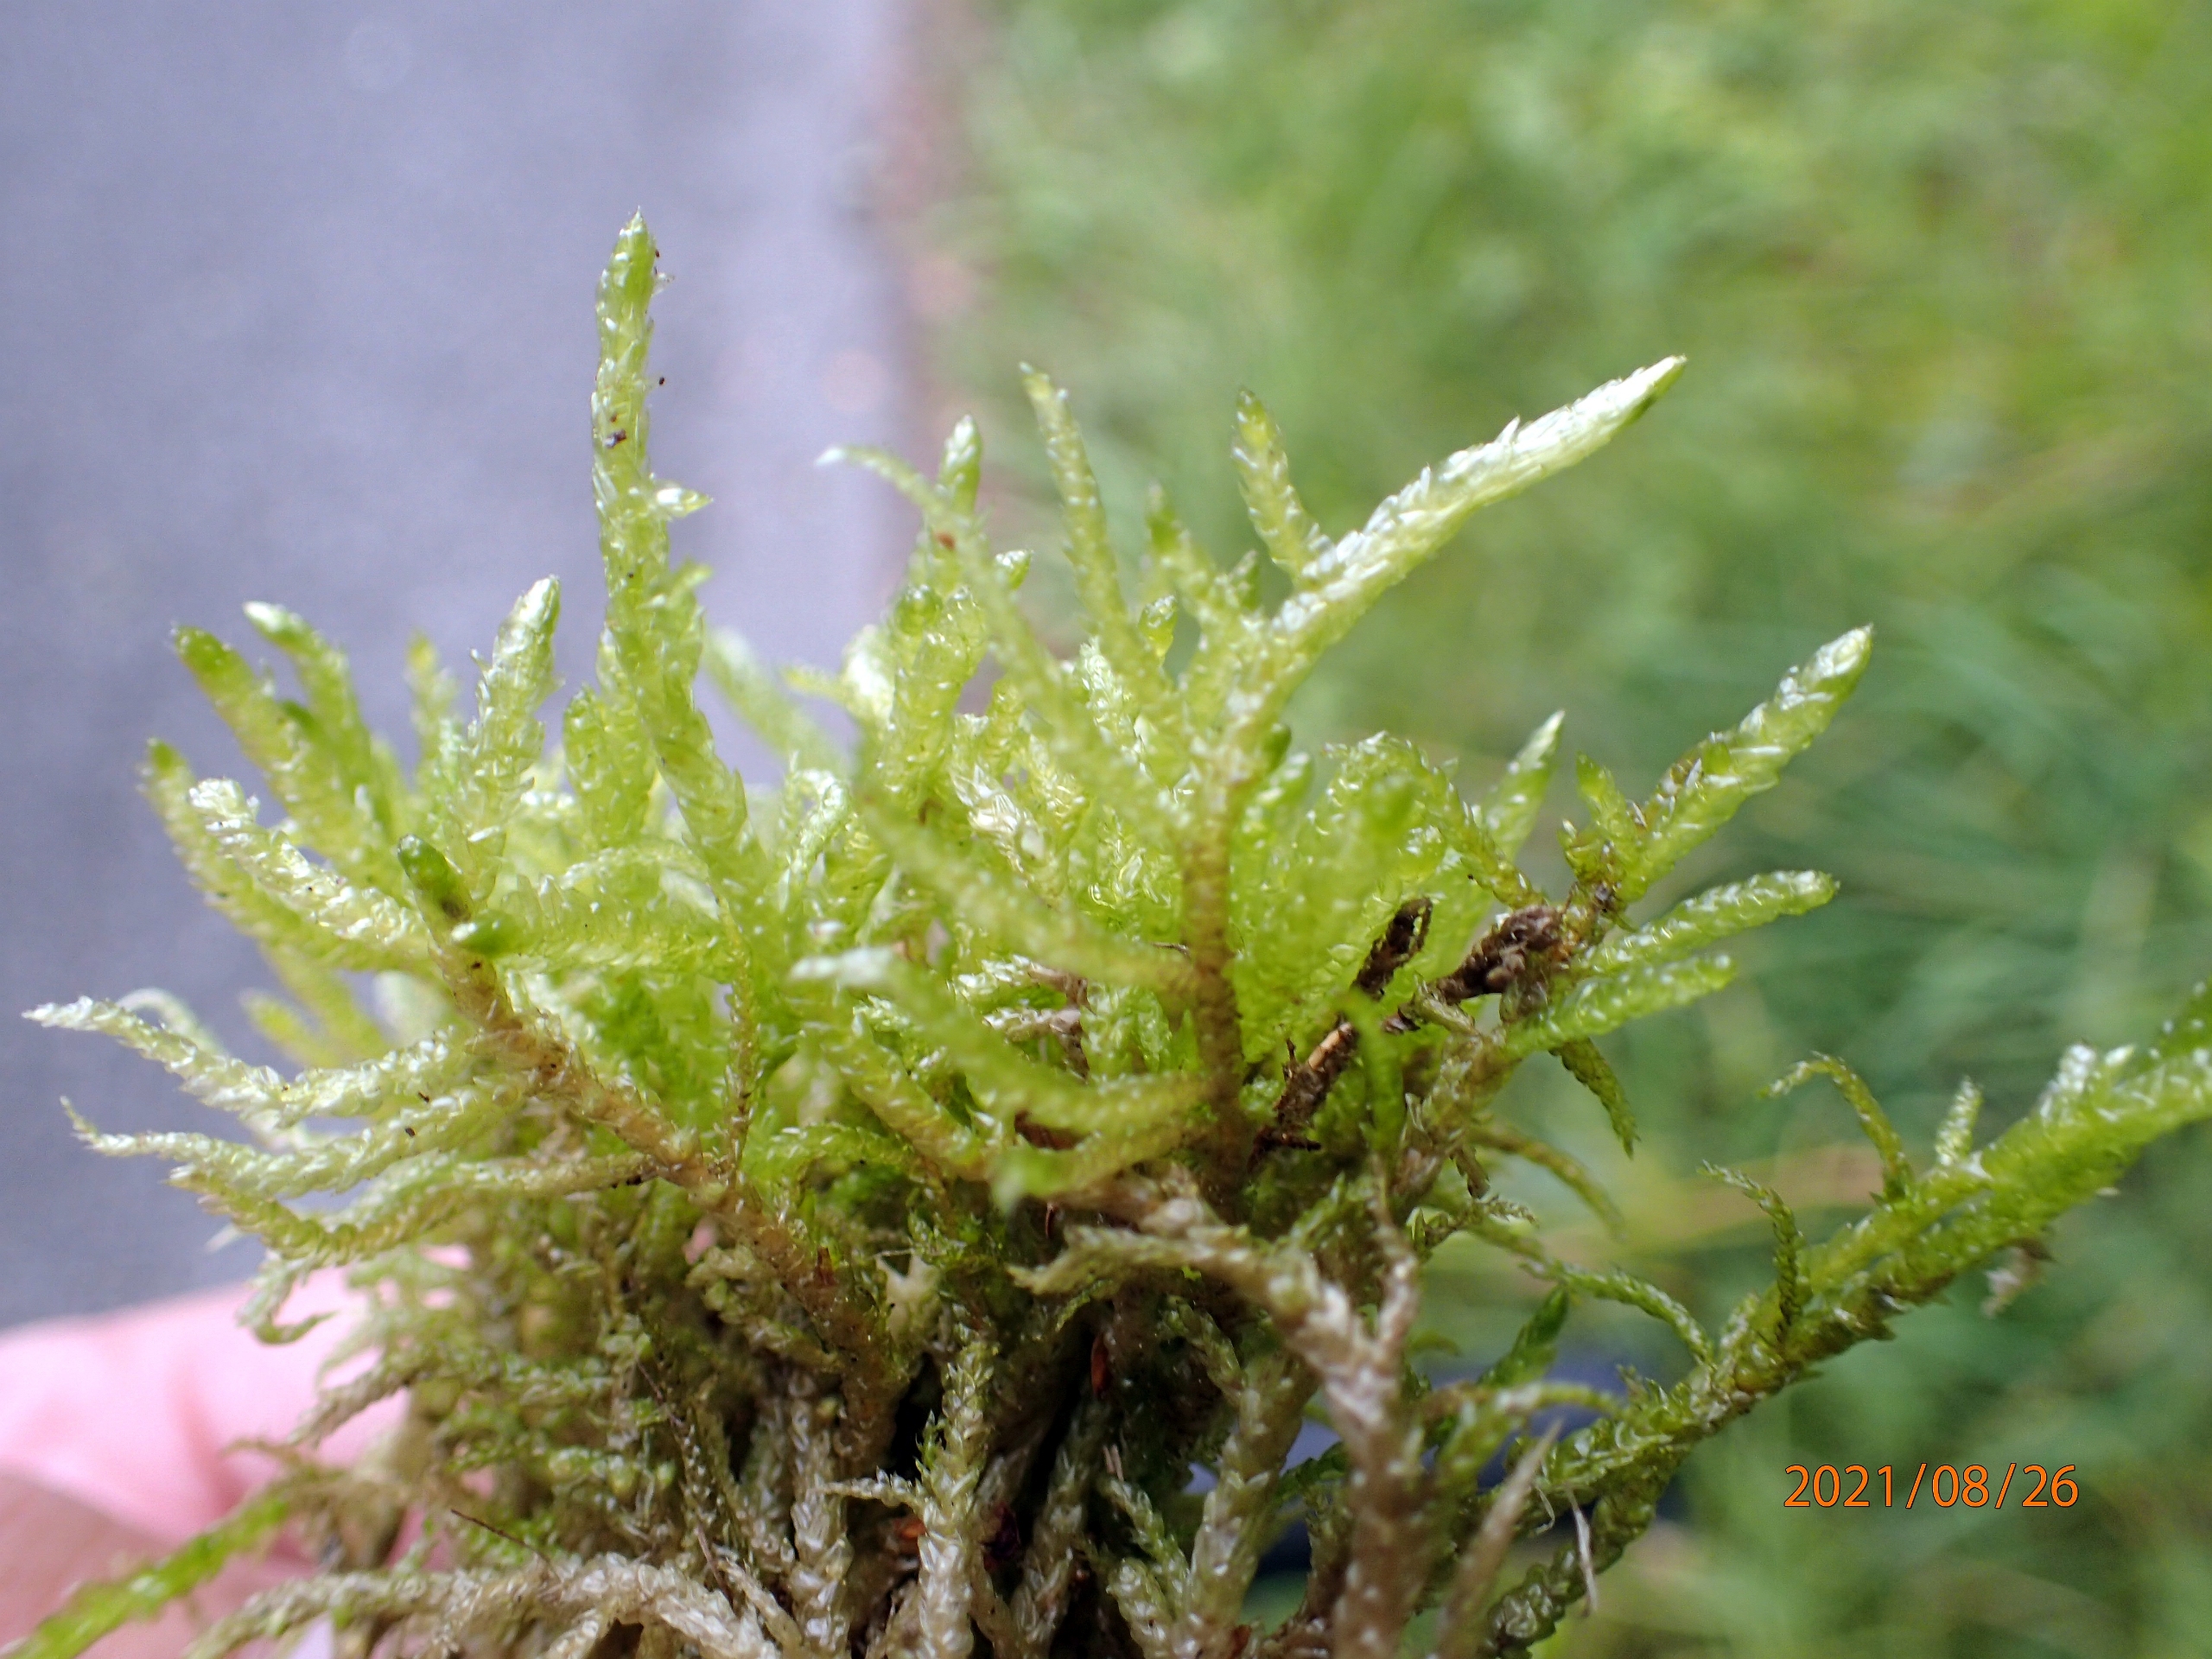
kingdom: Plantae
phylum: Bryophyta
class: Bryopsida
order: Hypnales
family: Brachytheciaceae
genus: Pseudoscleropodium
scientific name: Pseudoscleropodium purum
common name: Hulbladet fedtmos
